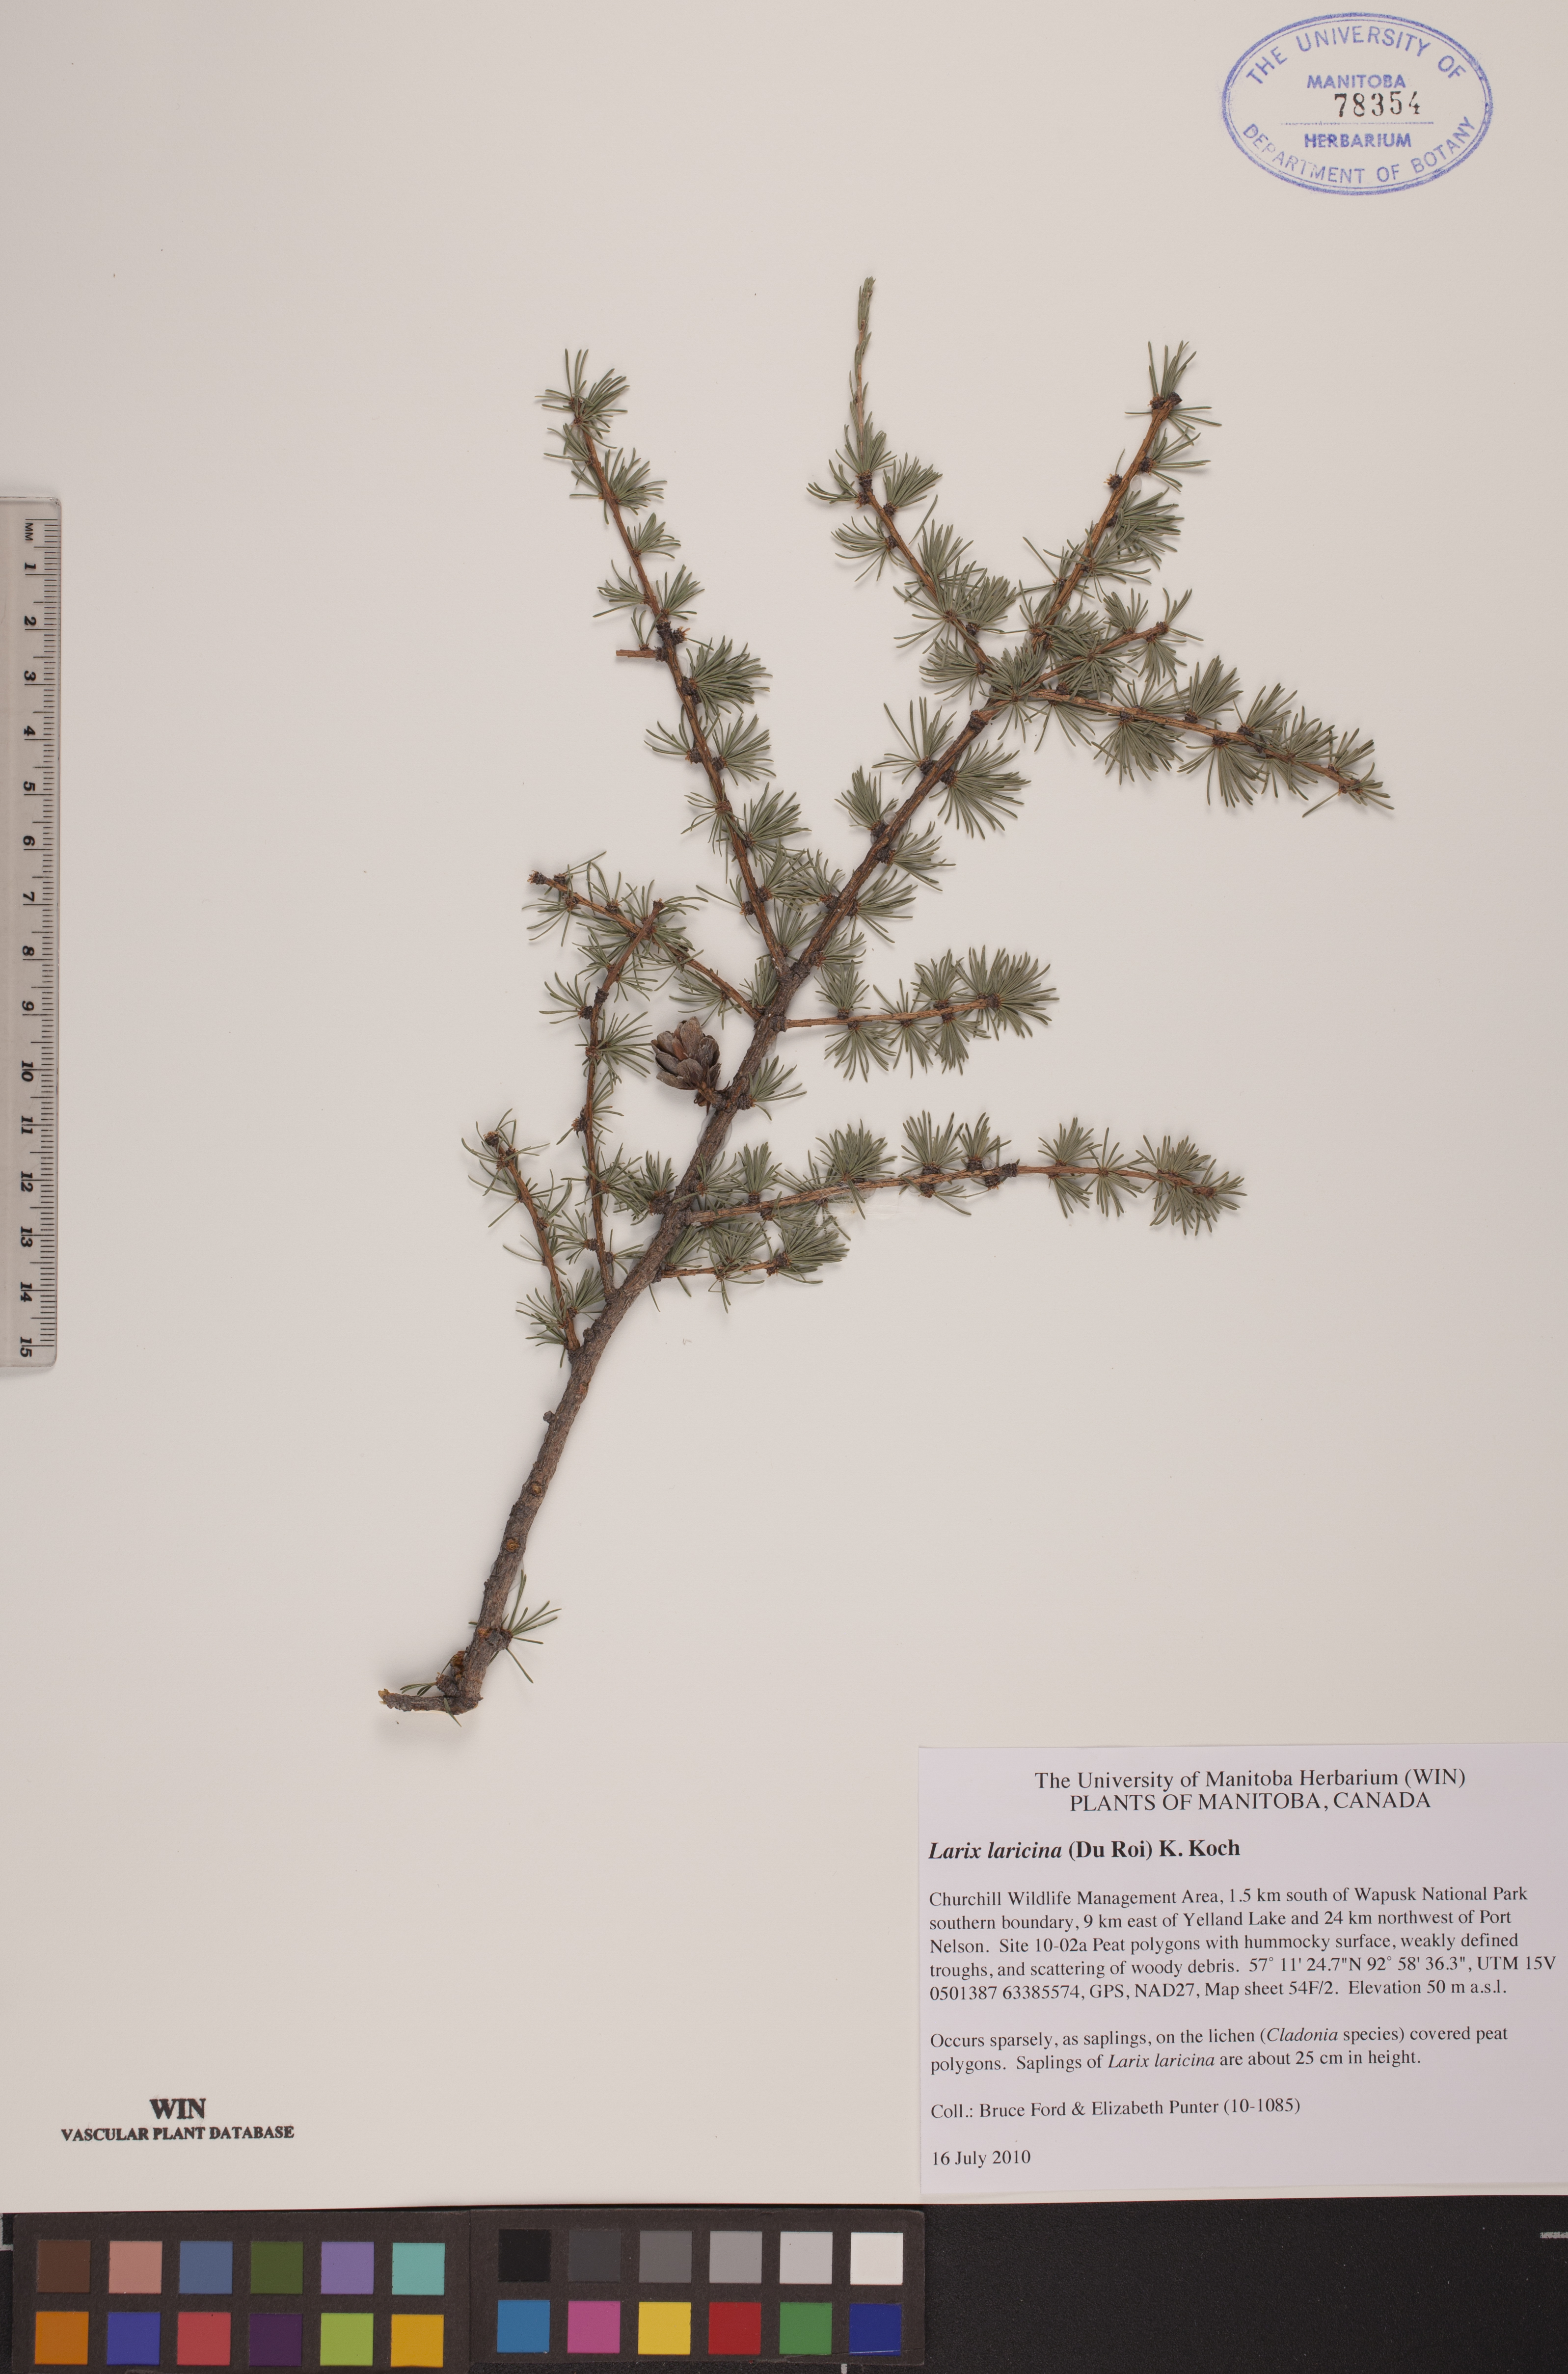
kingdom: Plantae
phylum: Tracheophyta
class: Pinopsida
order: Pinales
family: Pinaceae
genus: Larix
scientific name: Larix laricina
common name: American larch
